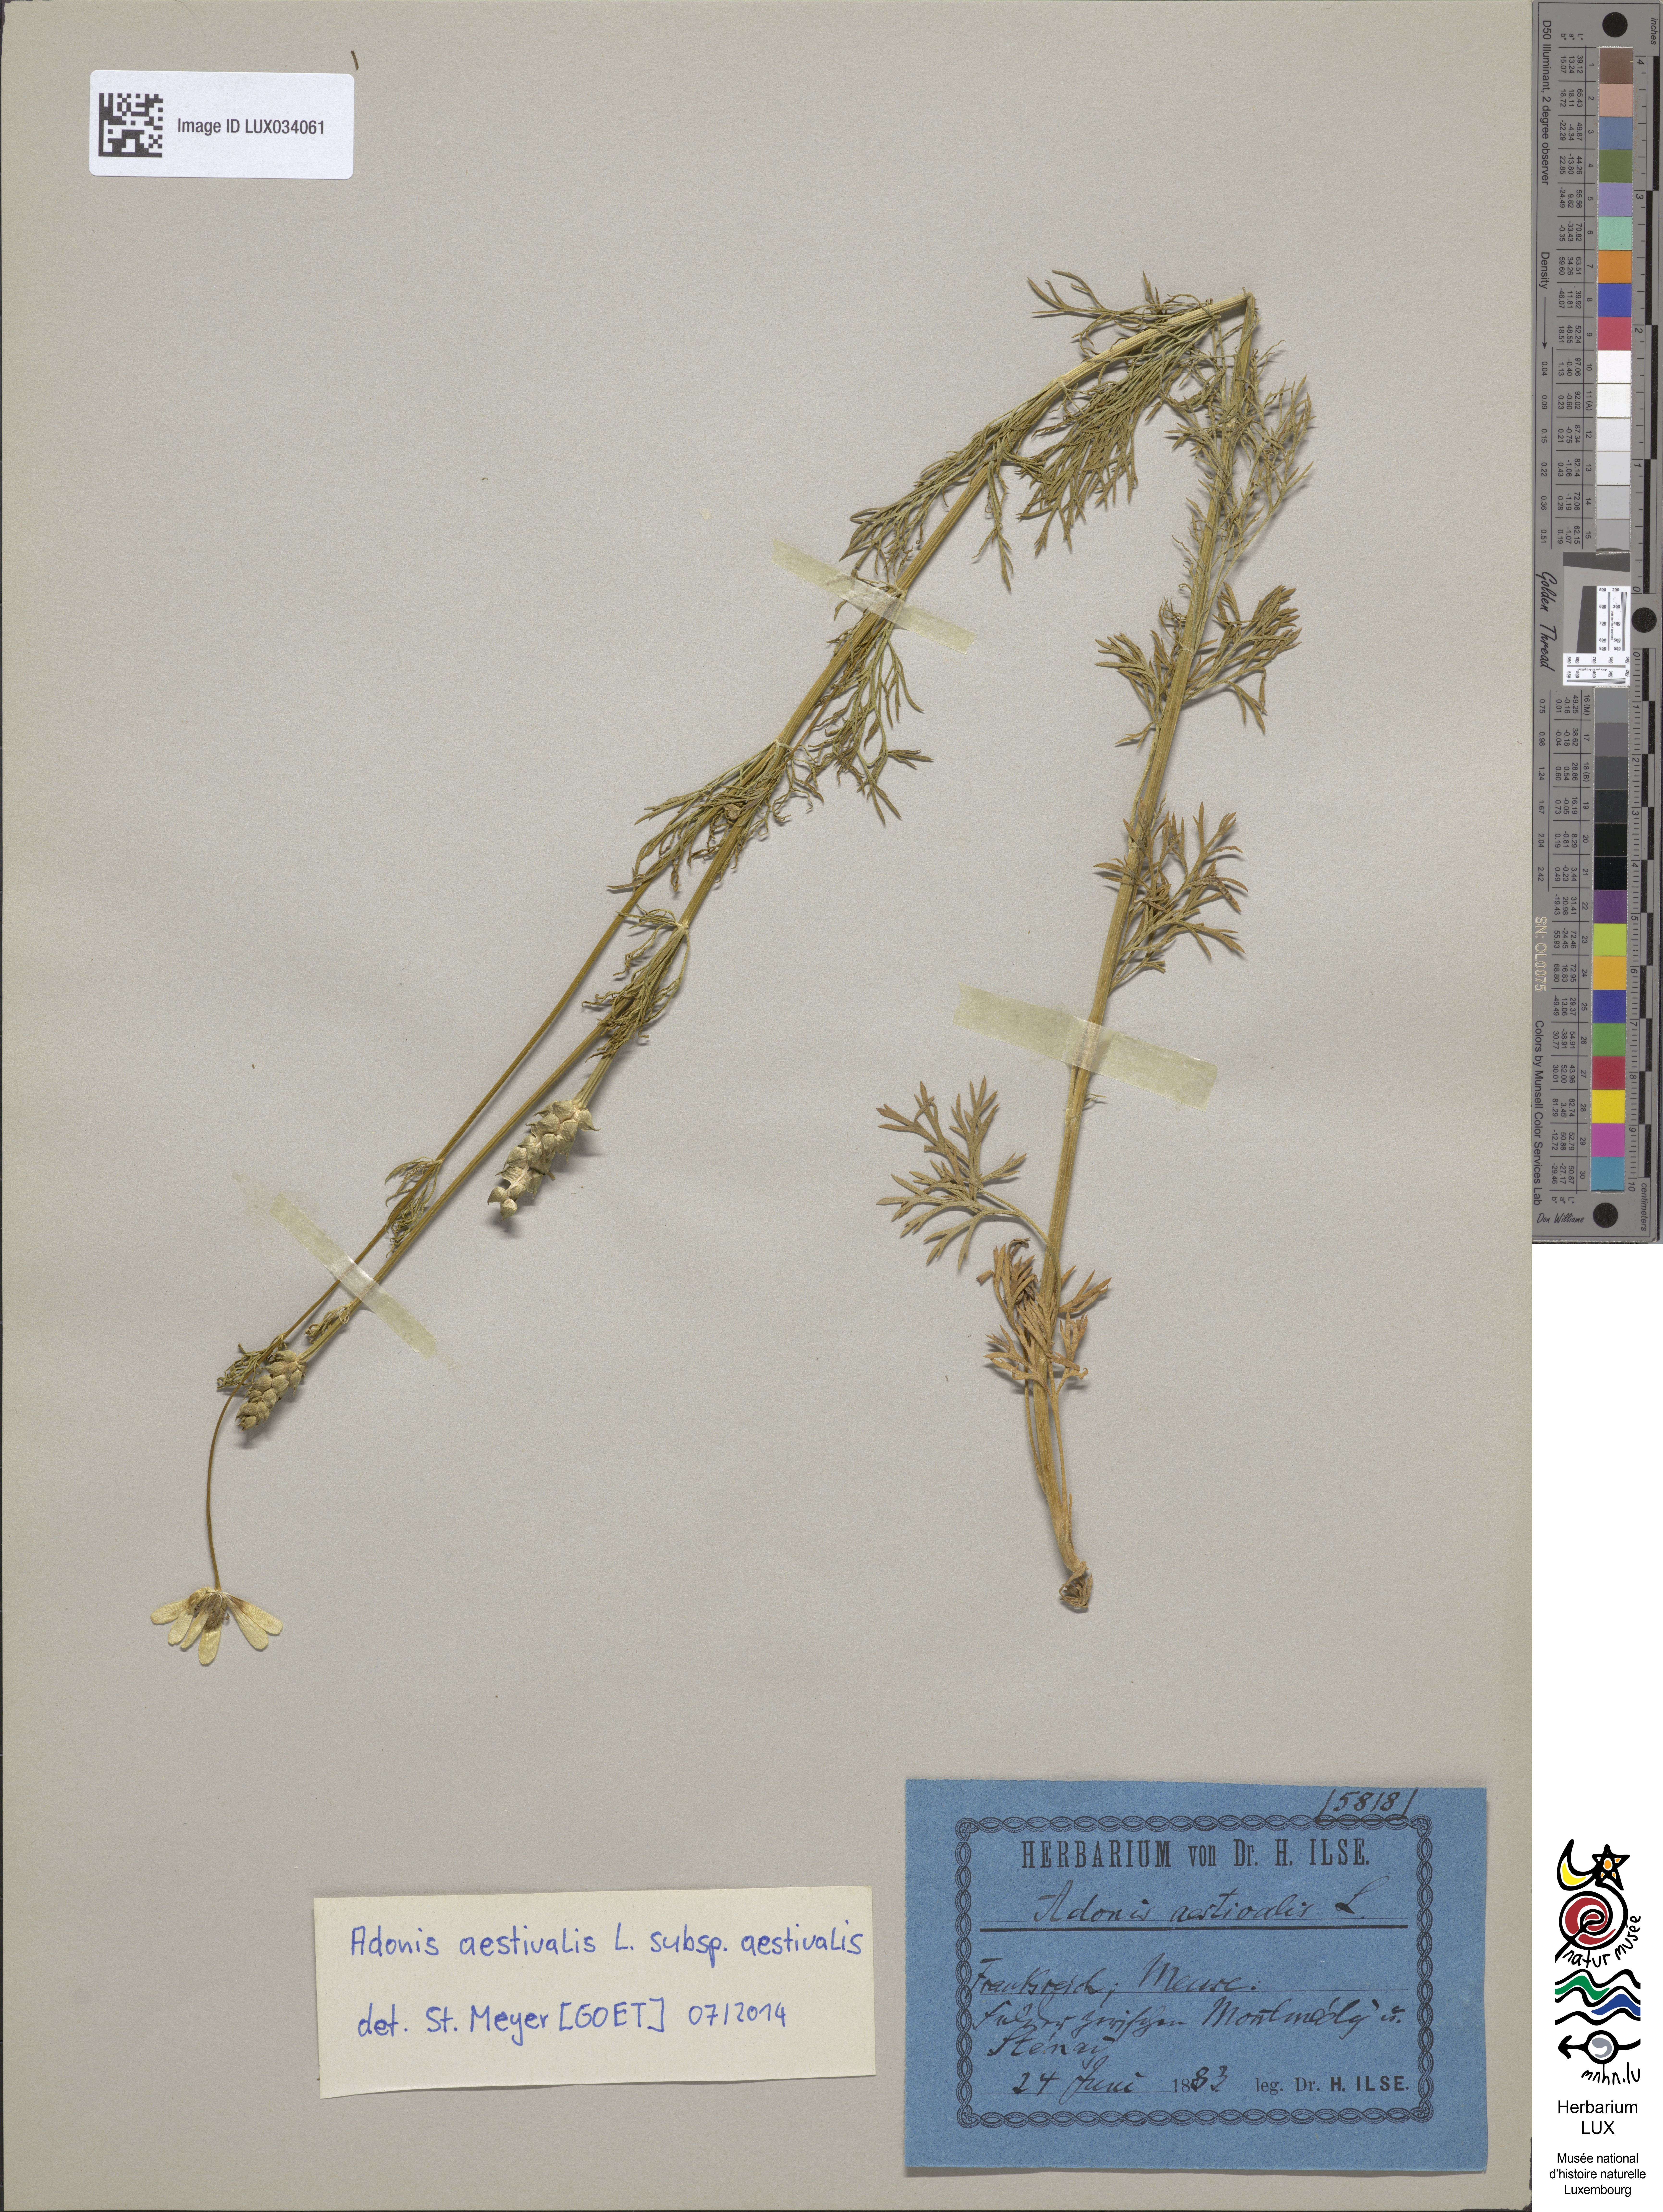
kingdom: Plantae
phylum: Tracheophyta
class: Magnoliopsida
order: Ranunculales
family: Ranunculaceae
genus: Adonis
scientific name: Adonis aestivalis
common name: Summer pheasant's-eye
